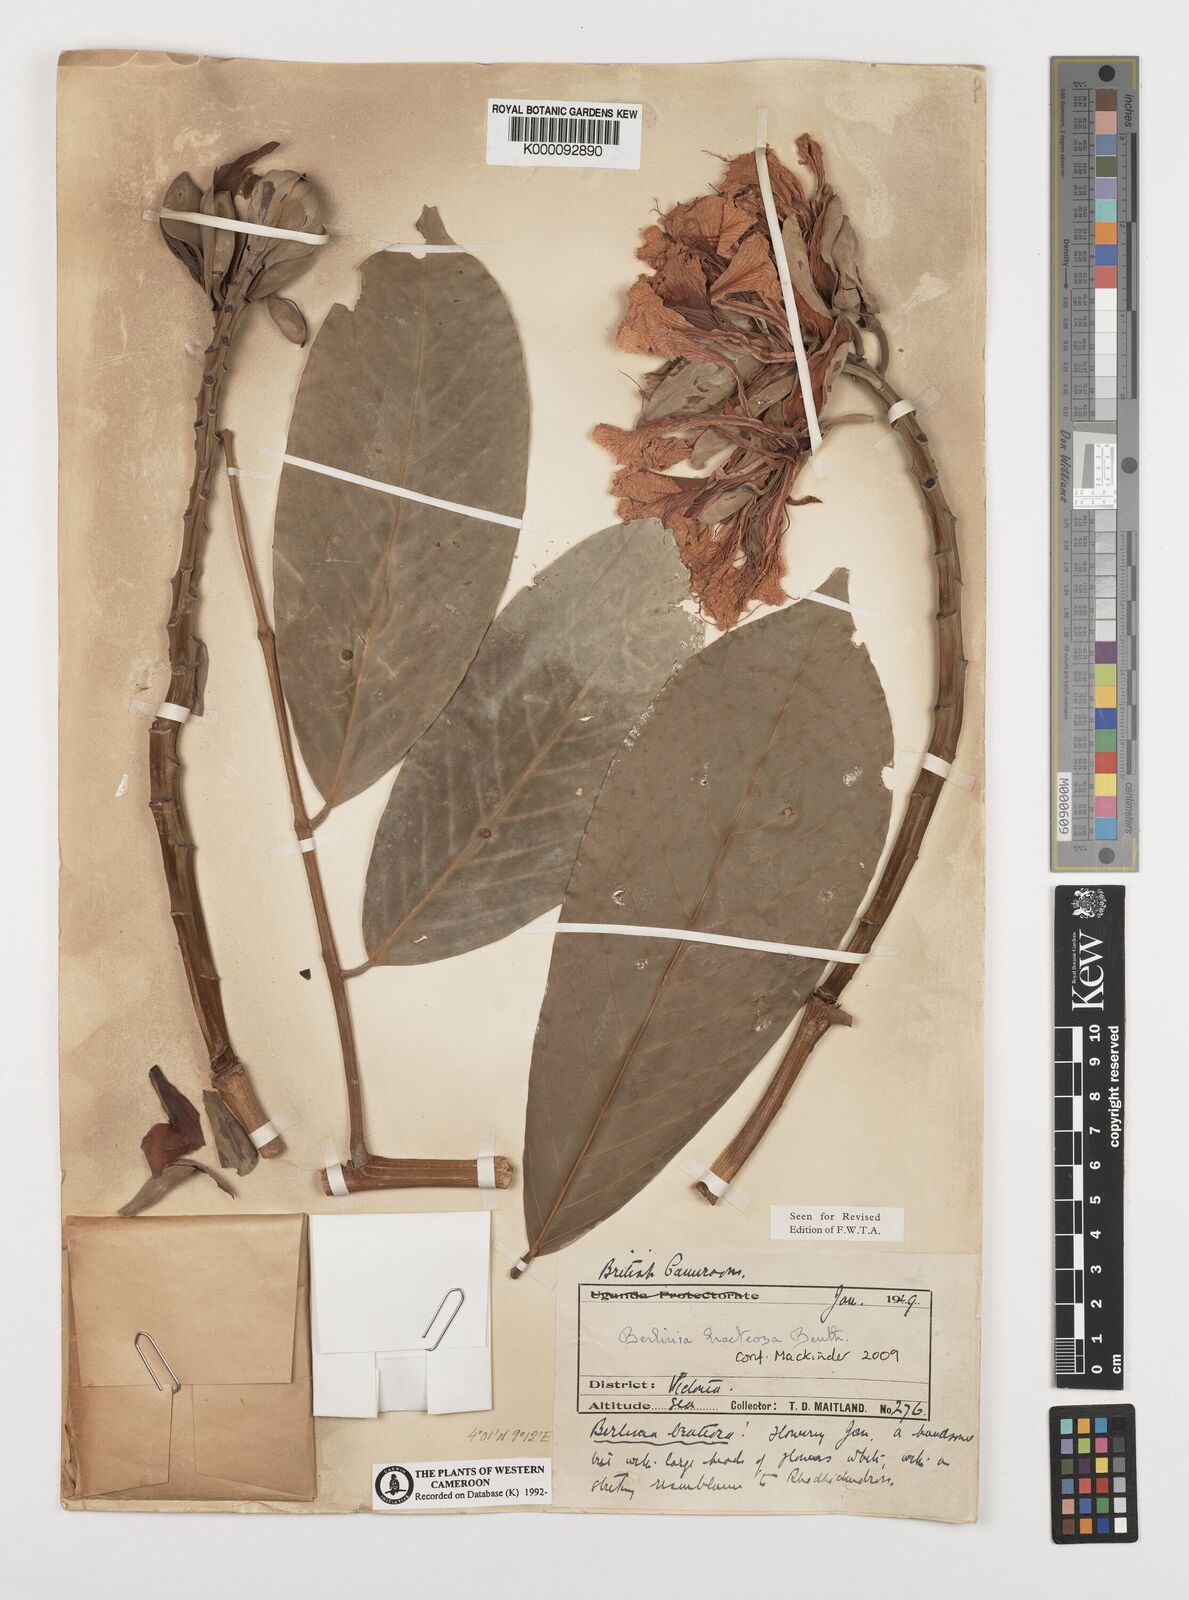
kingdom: Plantae
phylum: Tracheophyta
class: Magnoliopsida
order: Fabales
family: Fabaceae
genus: Berlinia
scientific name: Berlinia bracteosa
